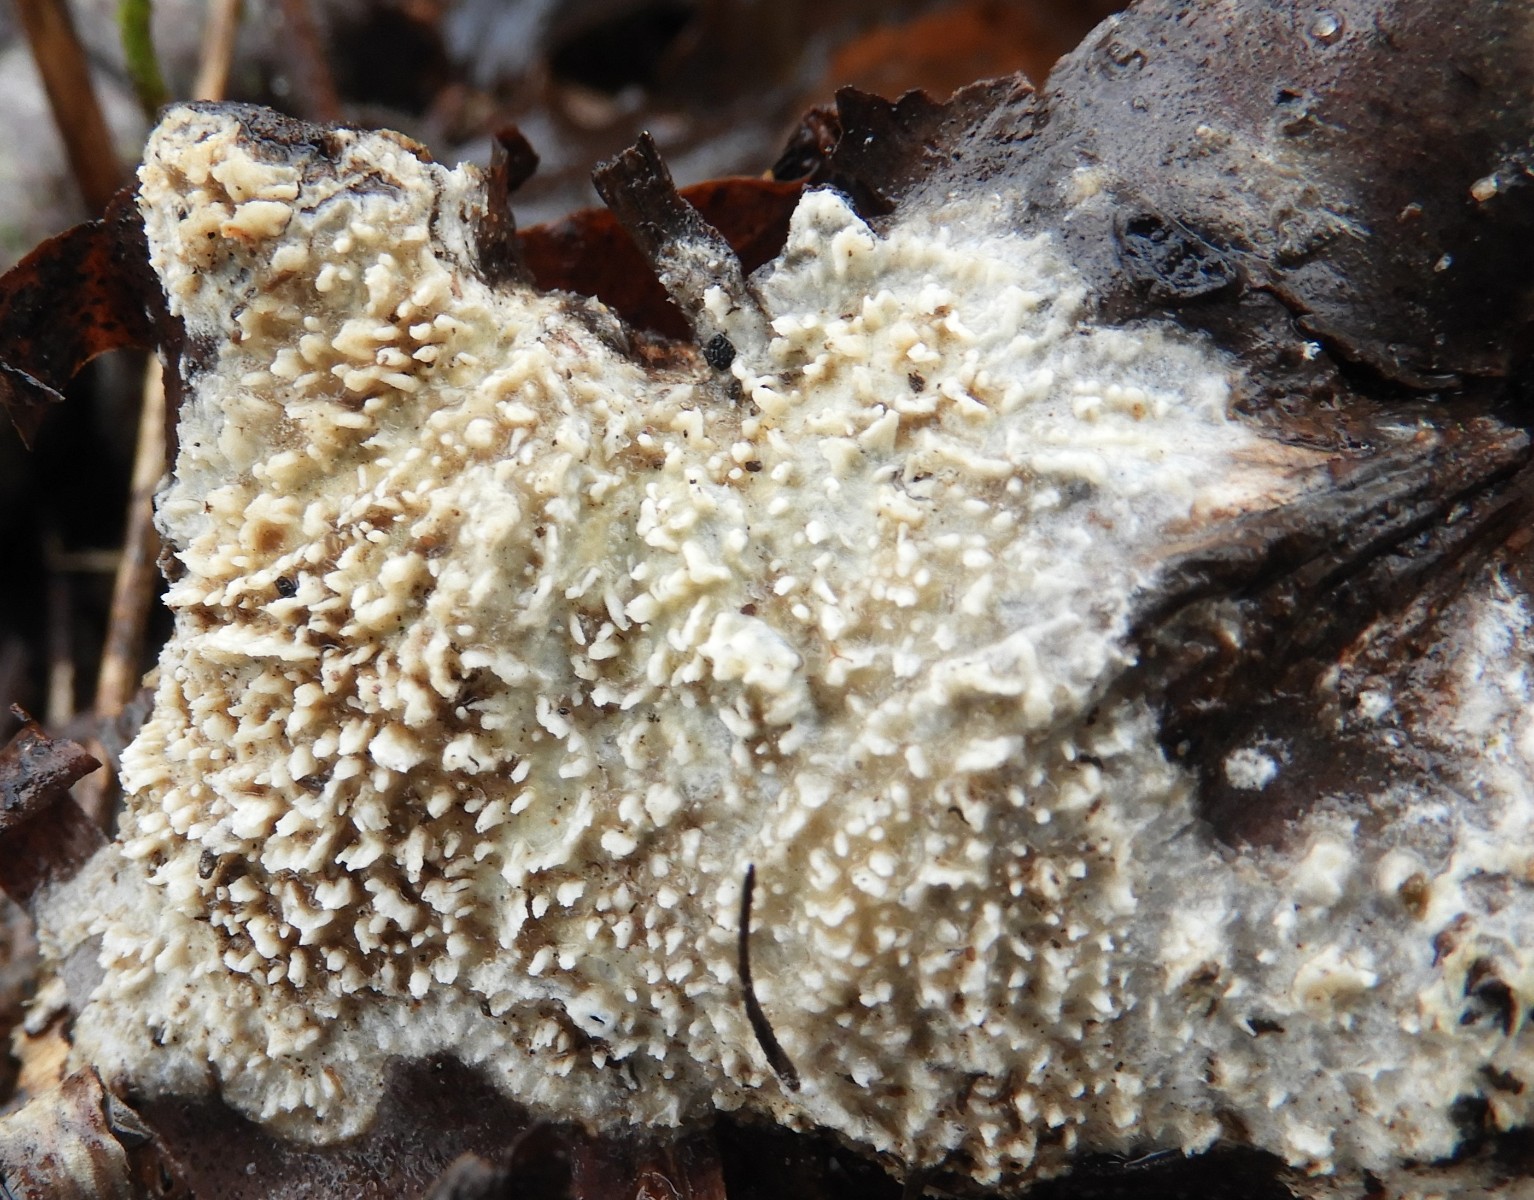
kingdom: Fungi
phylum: Basidiomycota
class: Agaricomycetes
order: Hymenochaetales
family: Schizoporaceae
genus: Xylodon
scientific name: Xylodon radula
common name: grovtandet kalkskind
